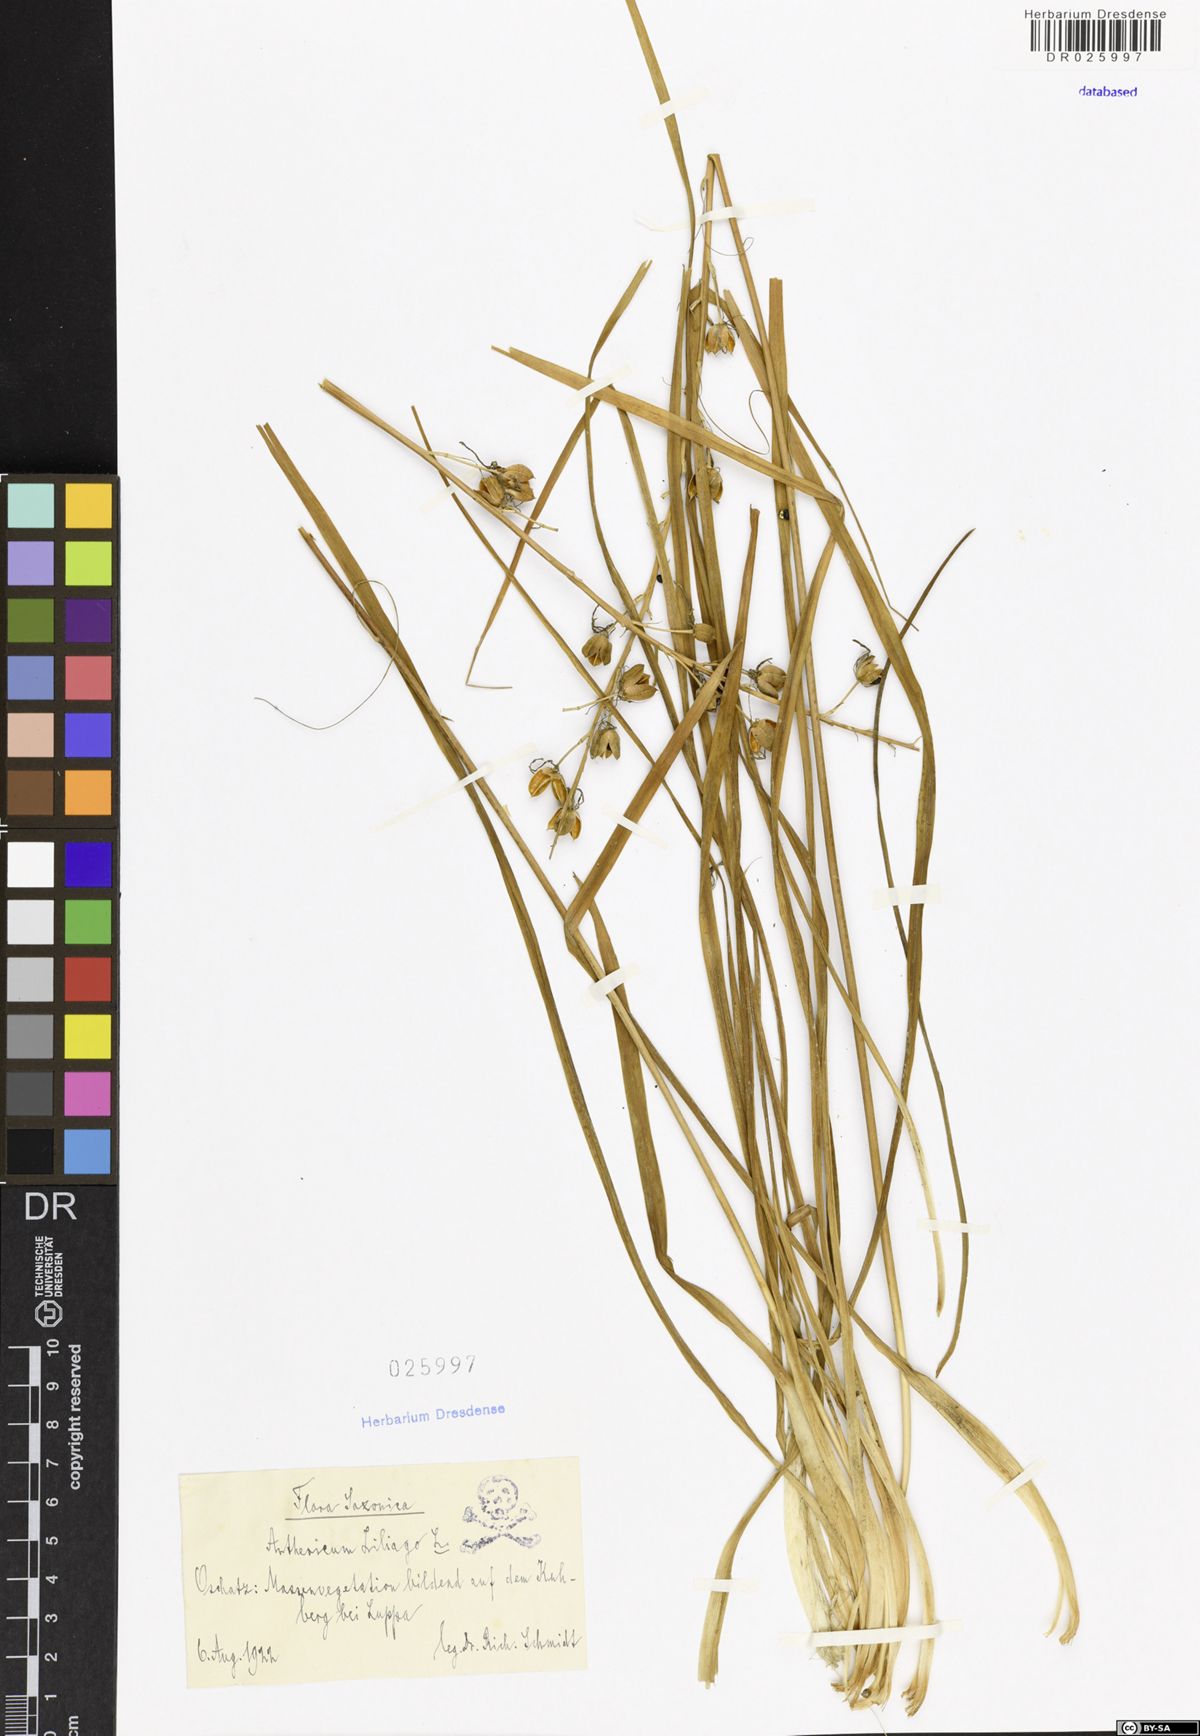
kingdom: Plantae
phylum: Tracheophyta
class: Liliopsida
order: Asparagales
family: Asparagaceae
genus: Anthericum
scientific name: Anthericum liliago
